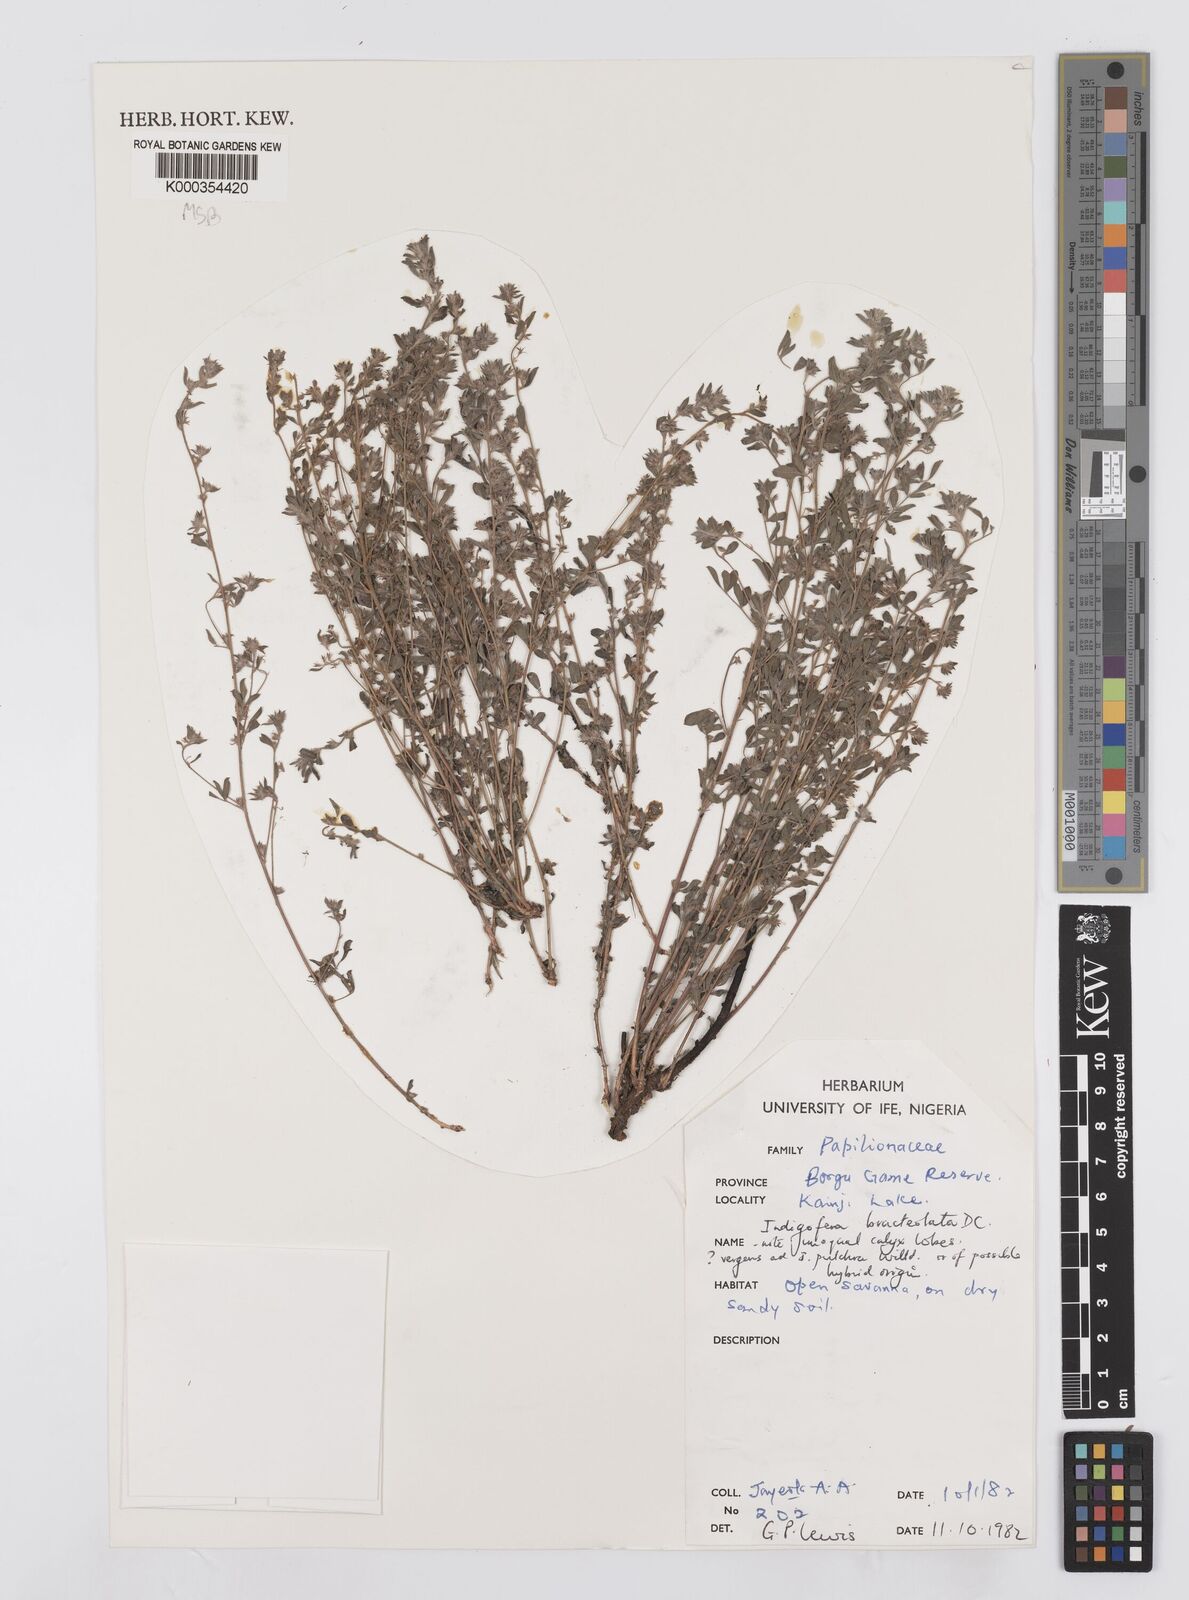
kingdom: Plantae
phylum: Tracheophyta
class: Magnoliopsida
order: Fabales
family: Fabaceae
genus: Indigofera
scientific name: Indigofera bracteolata
